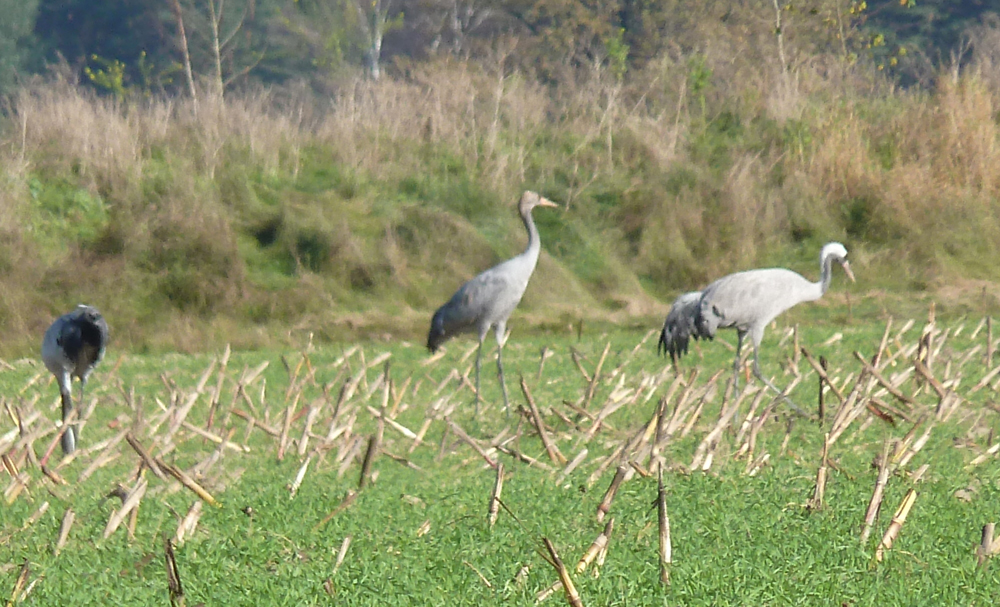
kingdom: Animalia
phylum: Chordata
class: Aves
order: Gruiformes
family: Gruidae
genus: Grus
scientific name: Grus grus
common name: Common crane
